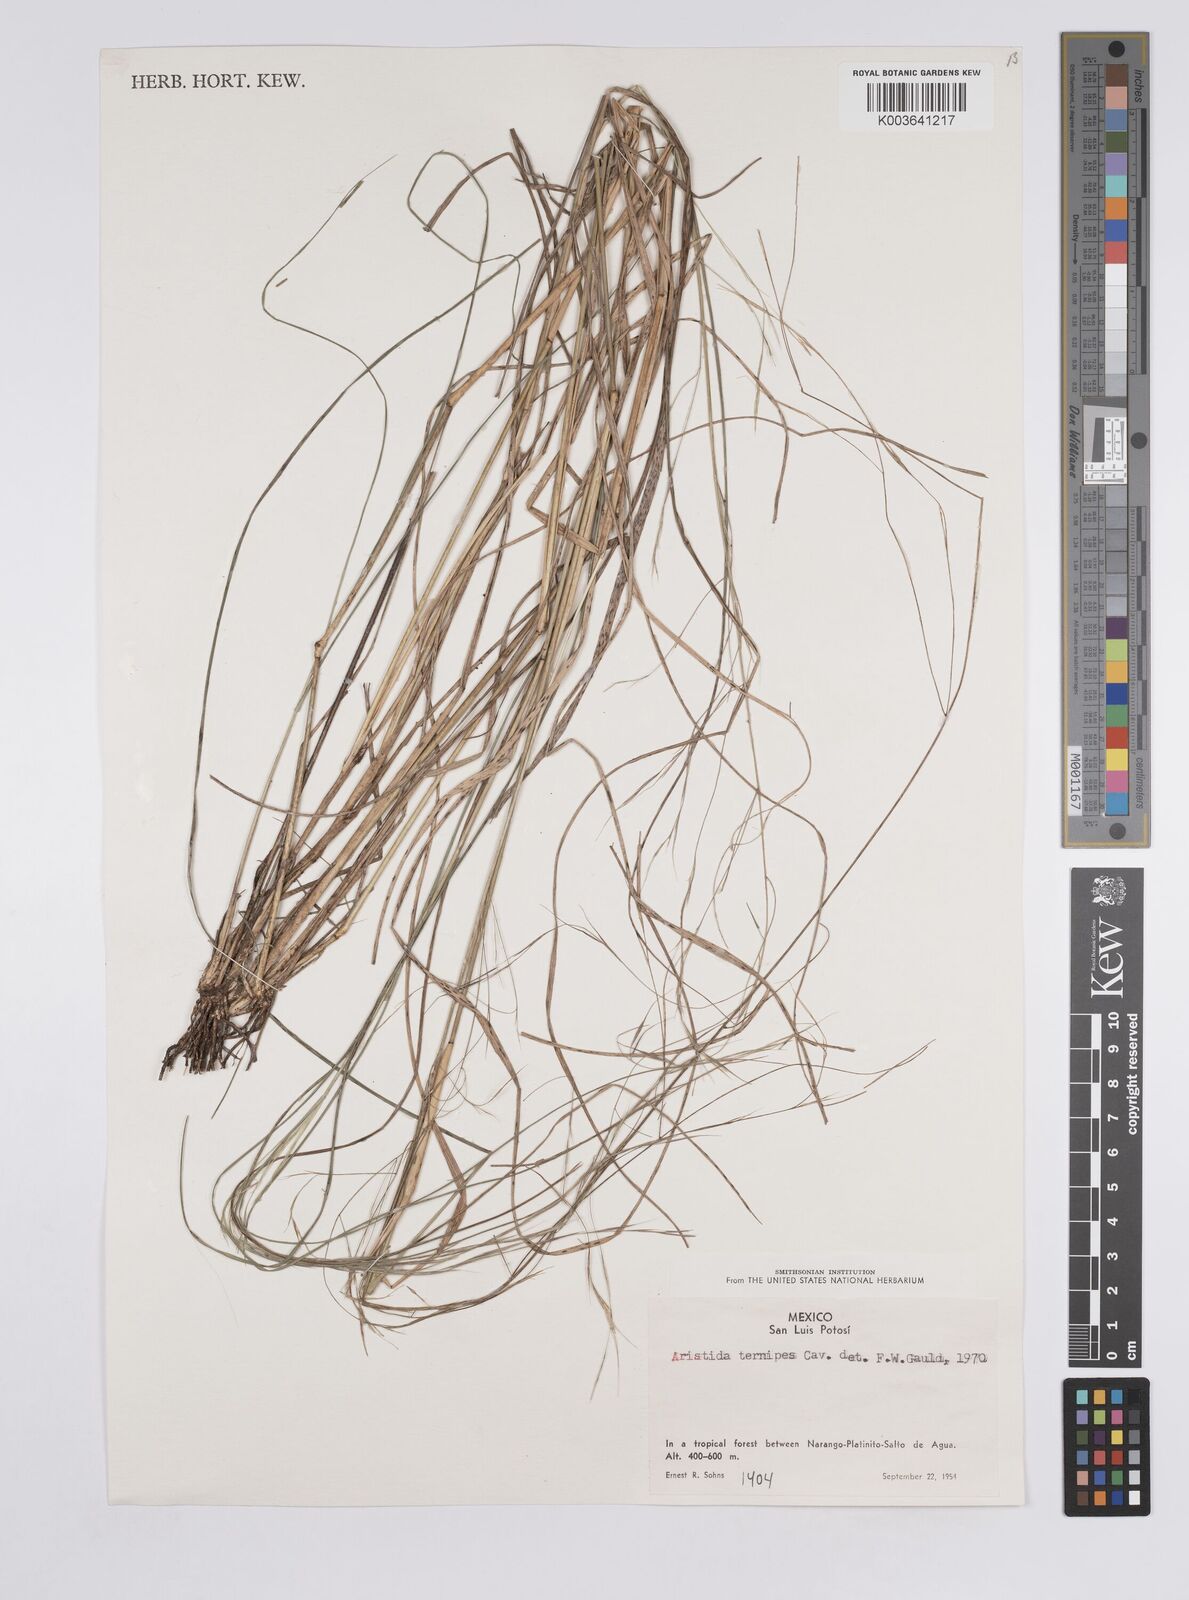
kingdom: Plantae
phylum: Tracheophyta
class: Liliopsida
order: Poales
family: Poaceae
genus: Aristida
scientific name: Aristida
